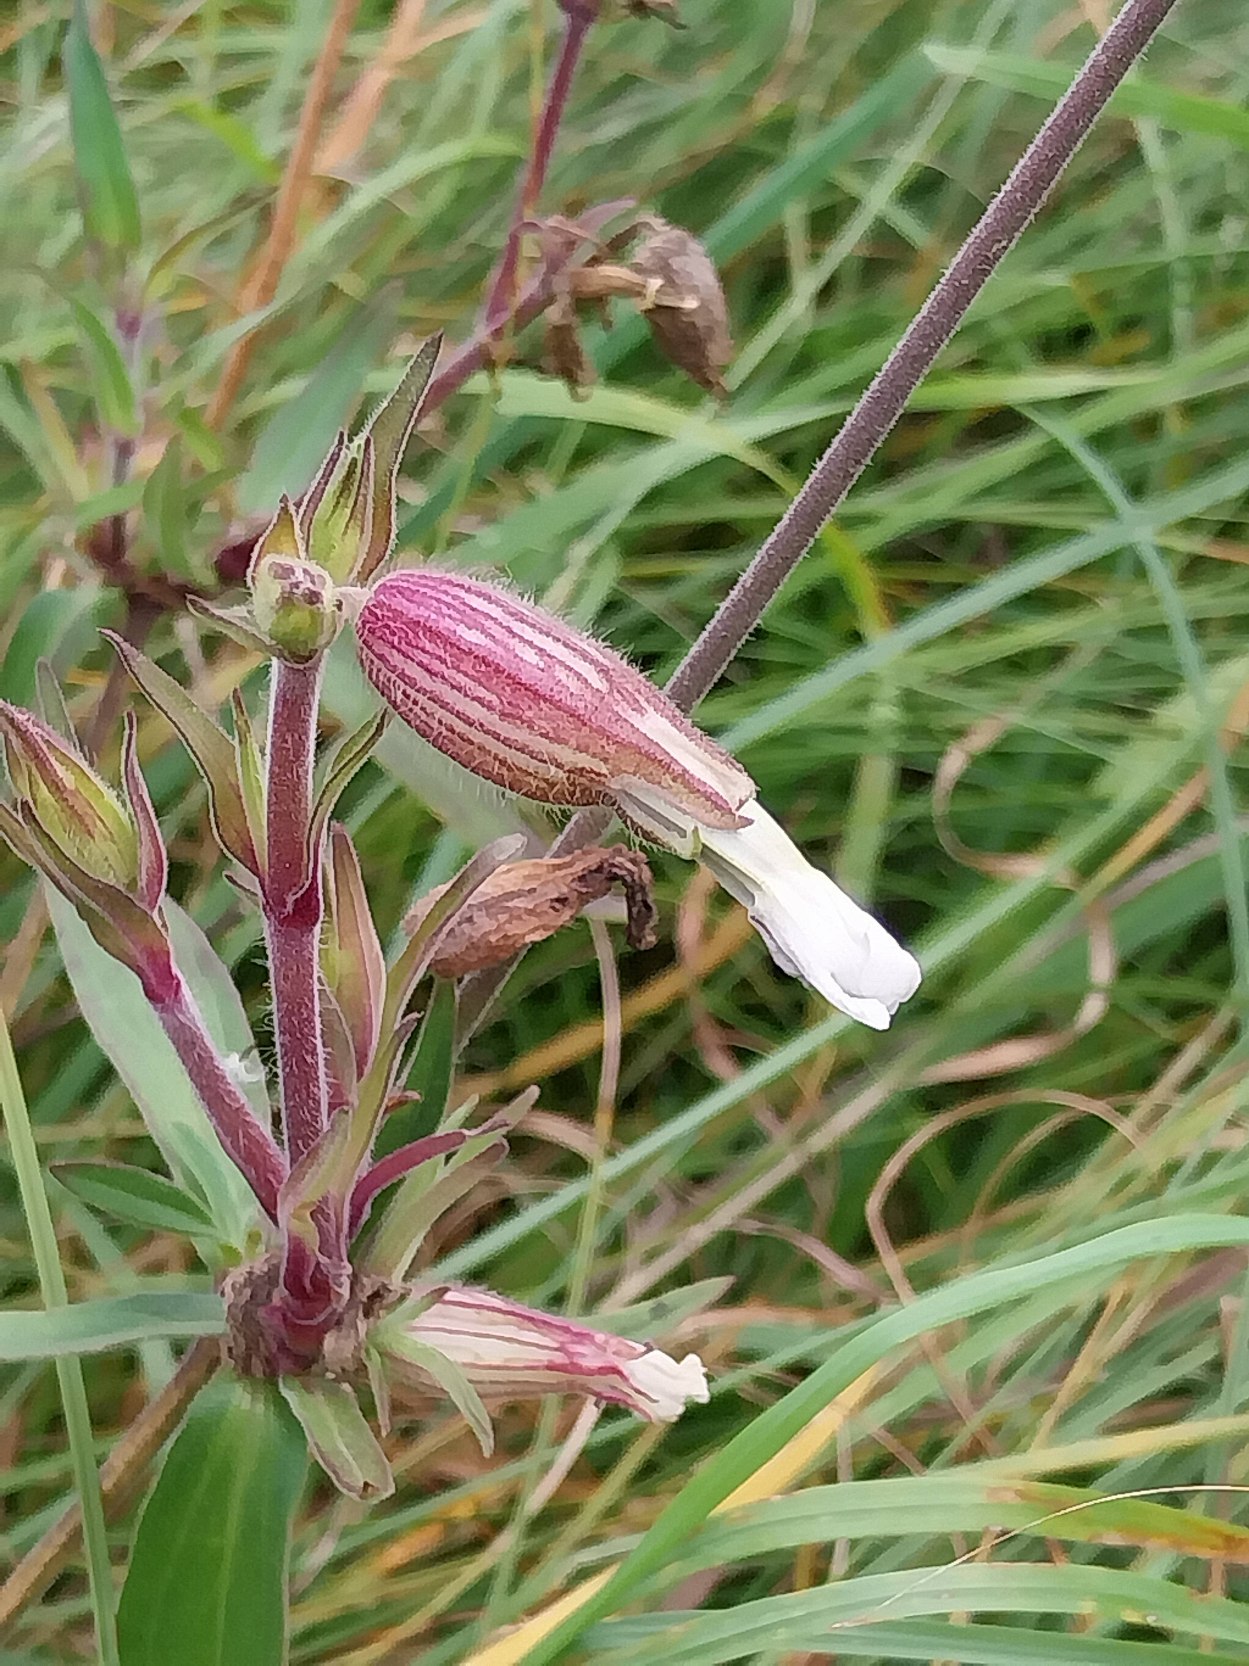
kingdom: Plantae
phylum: Tracheophyta
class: Magnoliopsida
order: Caryophyllales
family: Caryophyllaceae
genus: Silene
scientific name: Silene latifolia
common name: Aftenpragtstjerne
